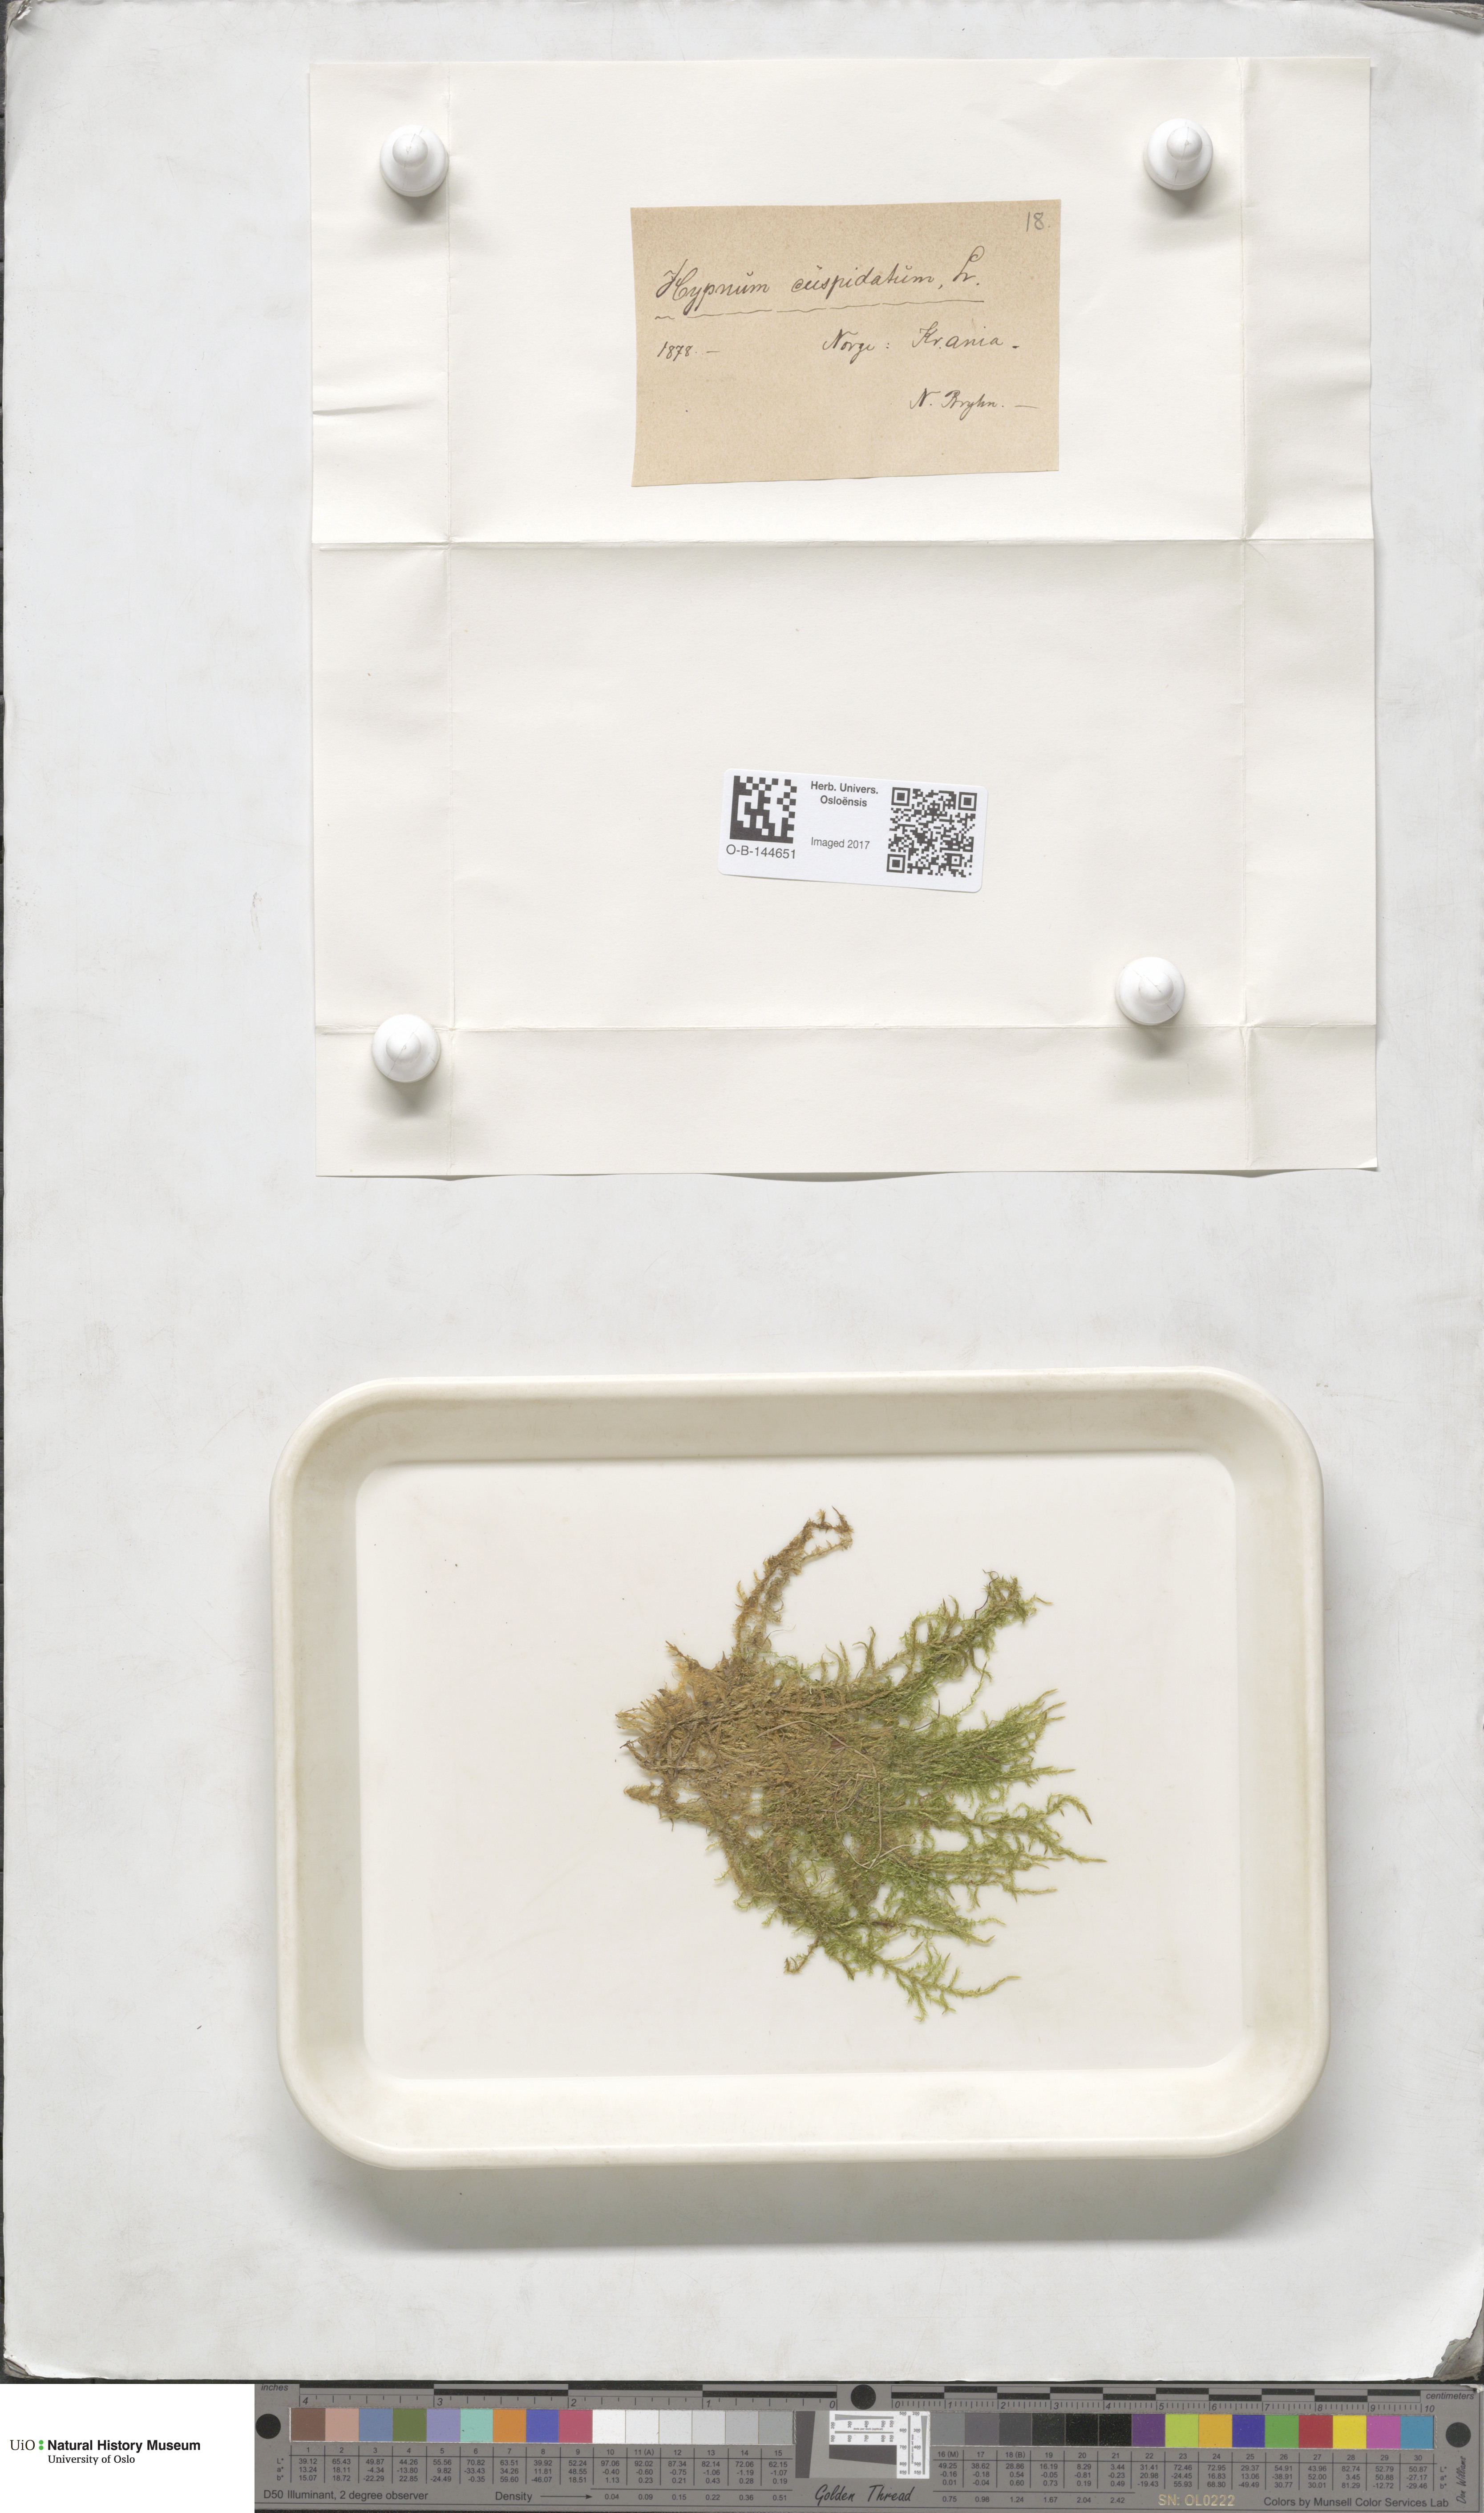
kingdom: Plantae
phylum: Bryophyta
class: Bryopsida
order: Hypnales
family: Pylaisiaceae
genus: Calliergonella
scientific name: Calliergonella cuspidata
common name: Common large wetland moss
